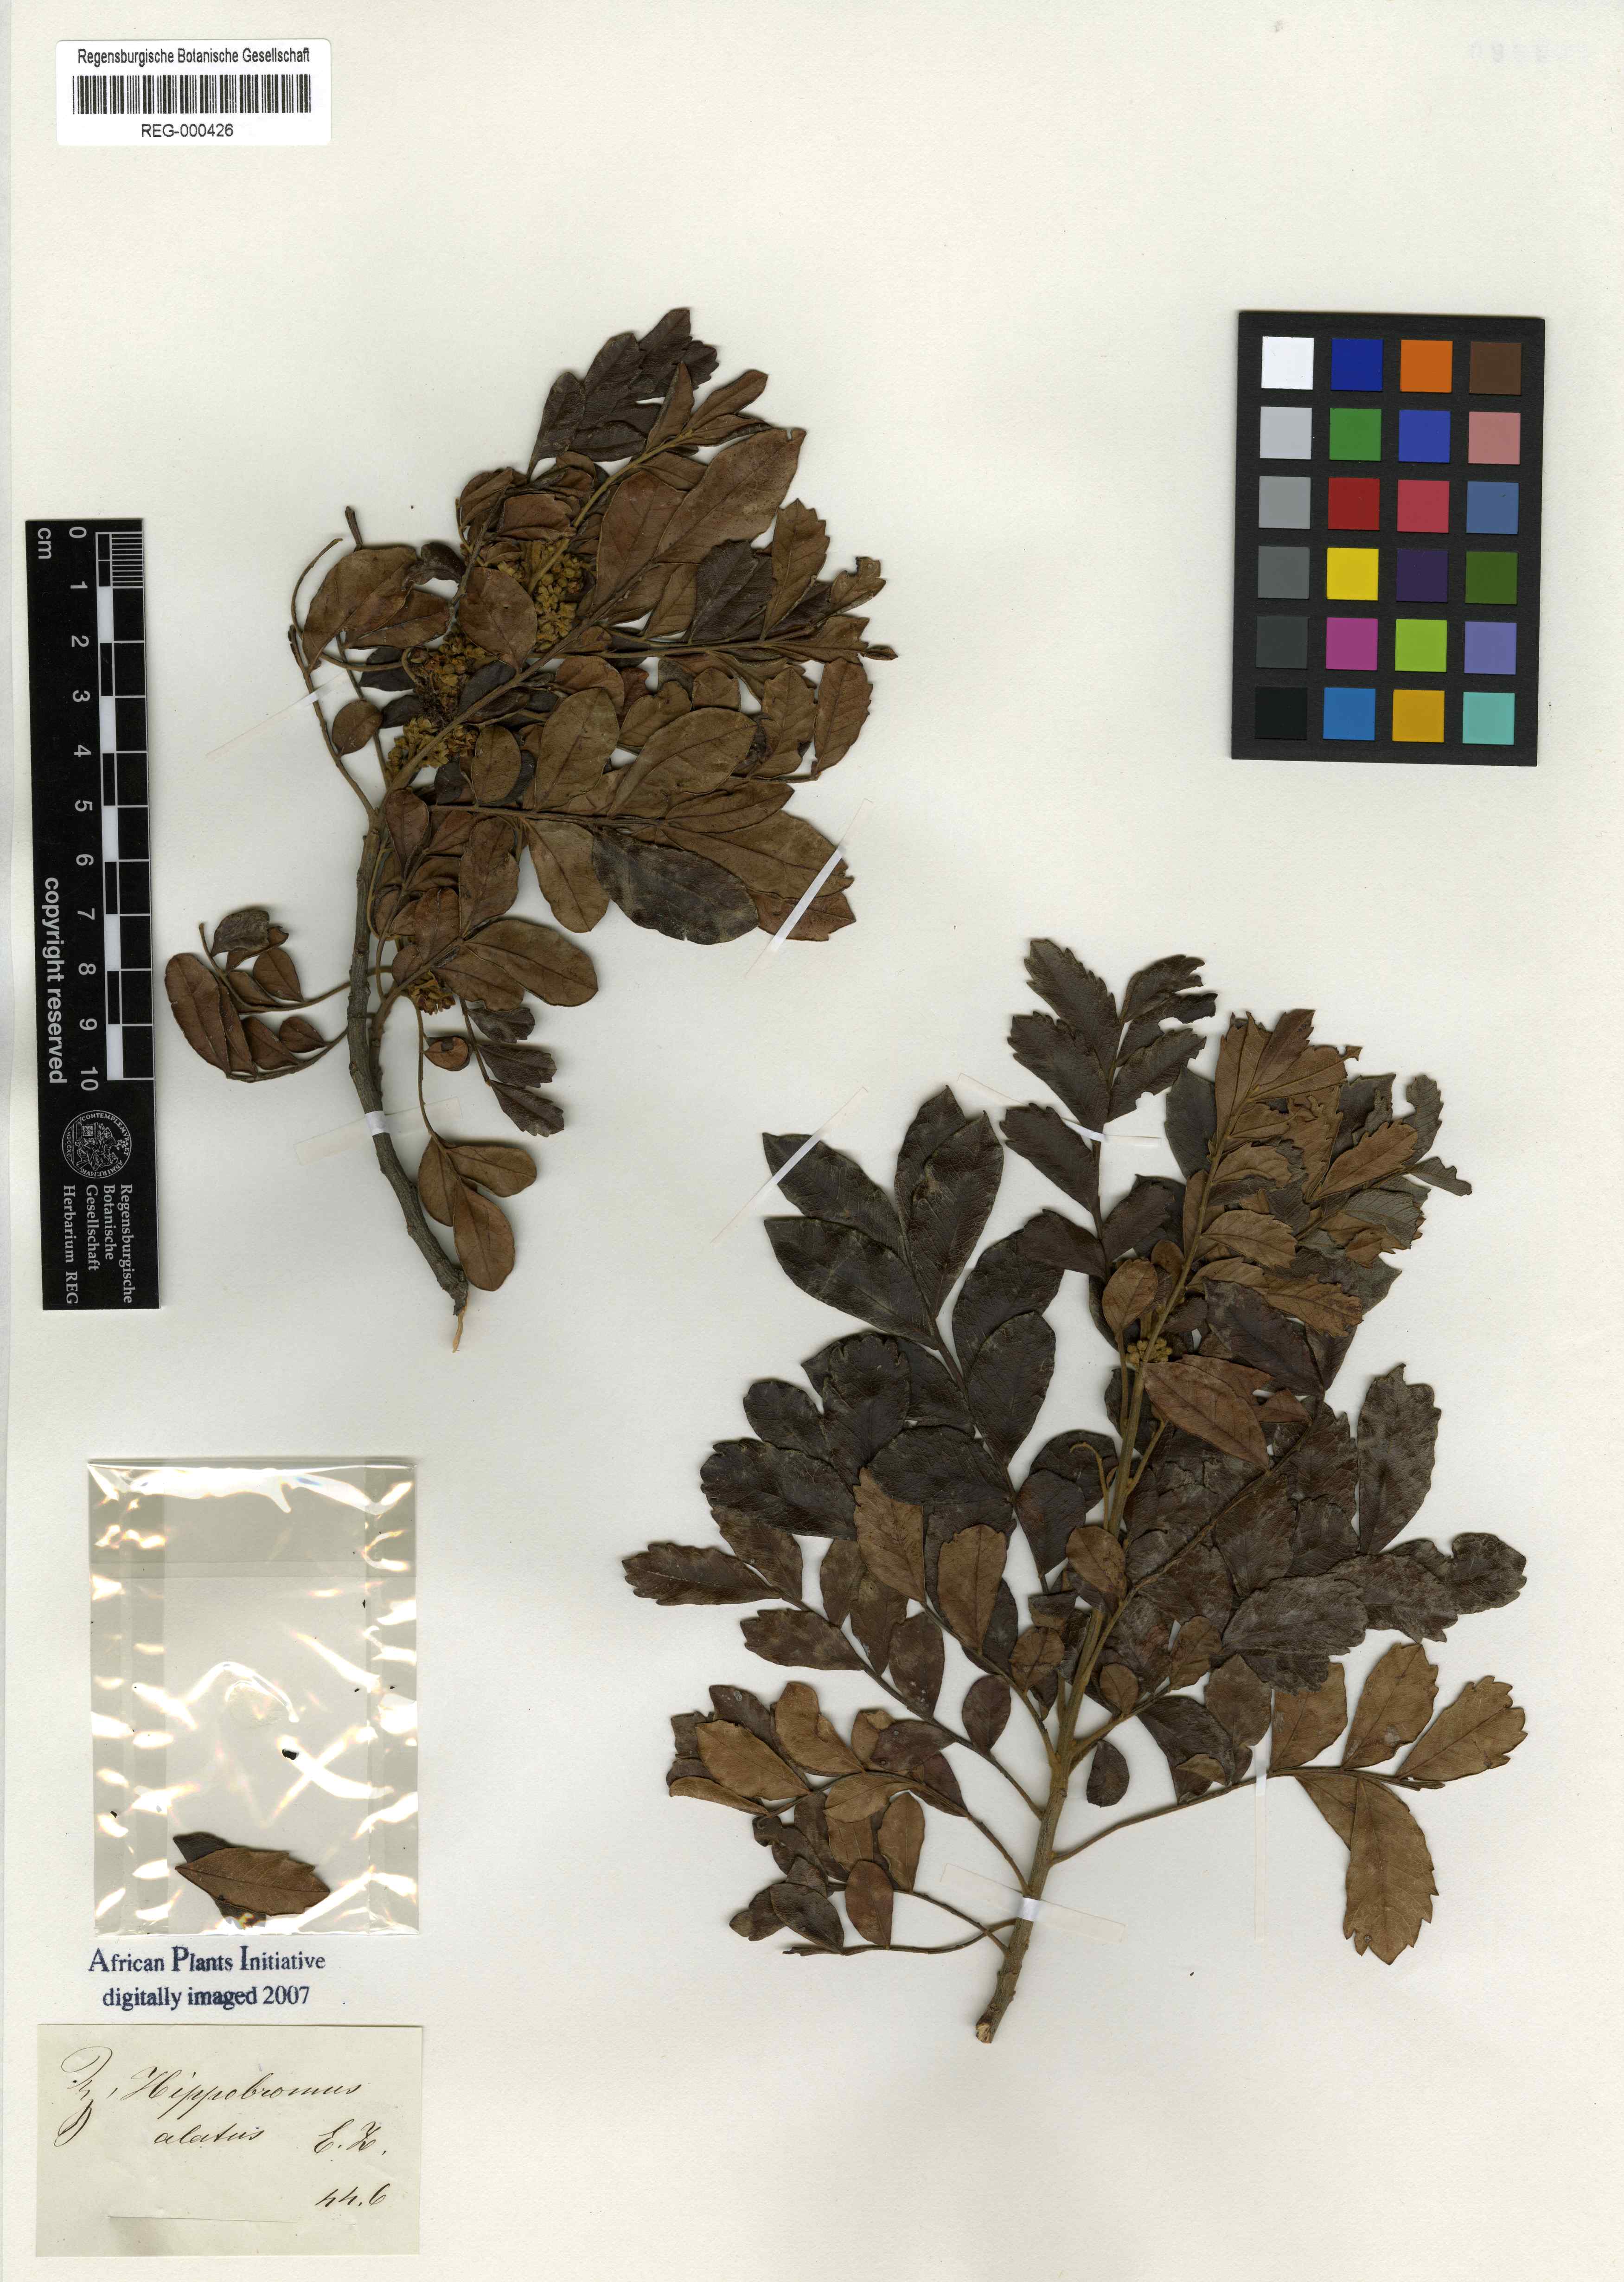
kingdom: Plantae
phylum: Tracheophyta
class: Magnoliopsida
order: Sapindales
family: Sapindaceae
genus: Hippobromus
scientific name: Hippobromus pauciflorus
